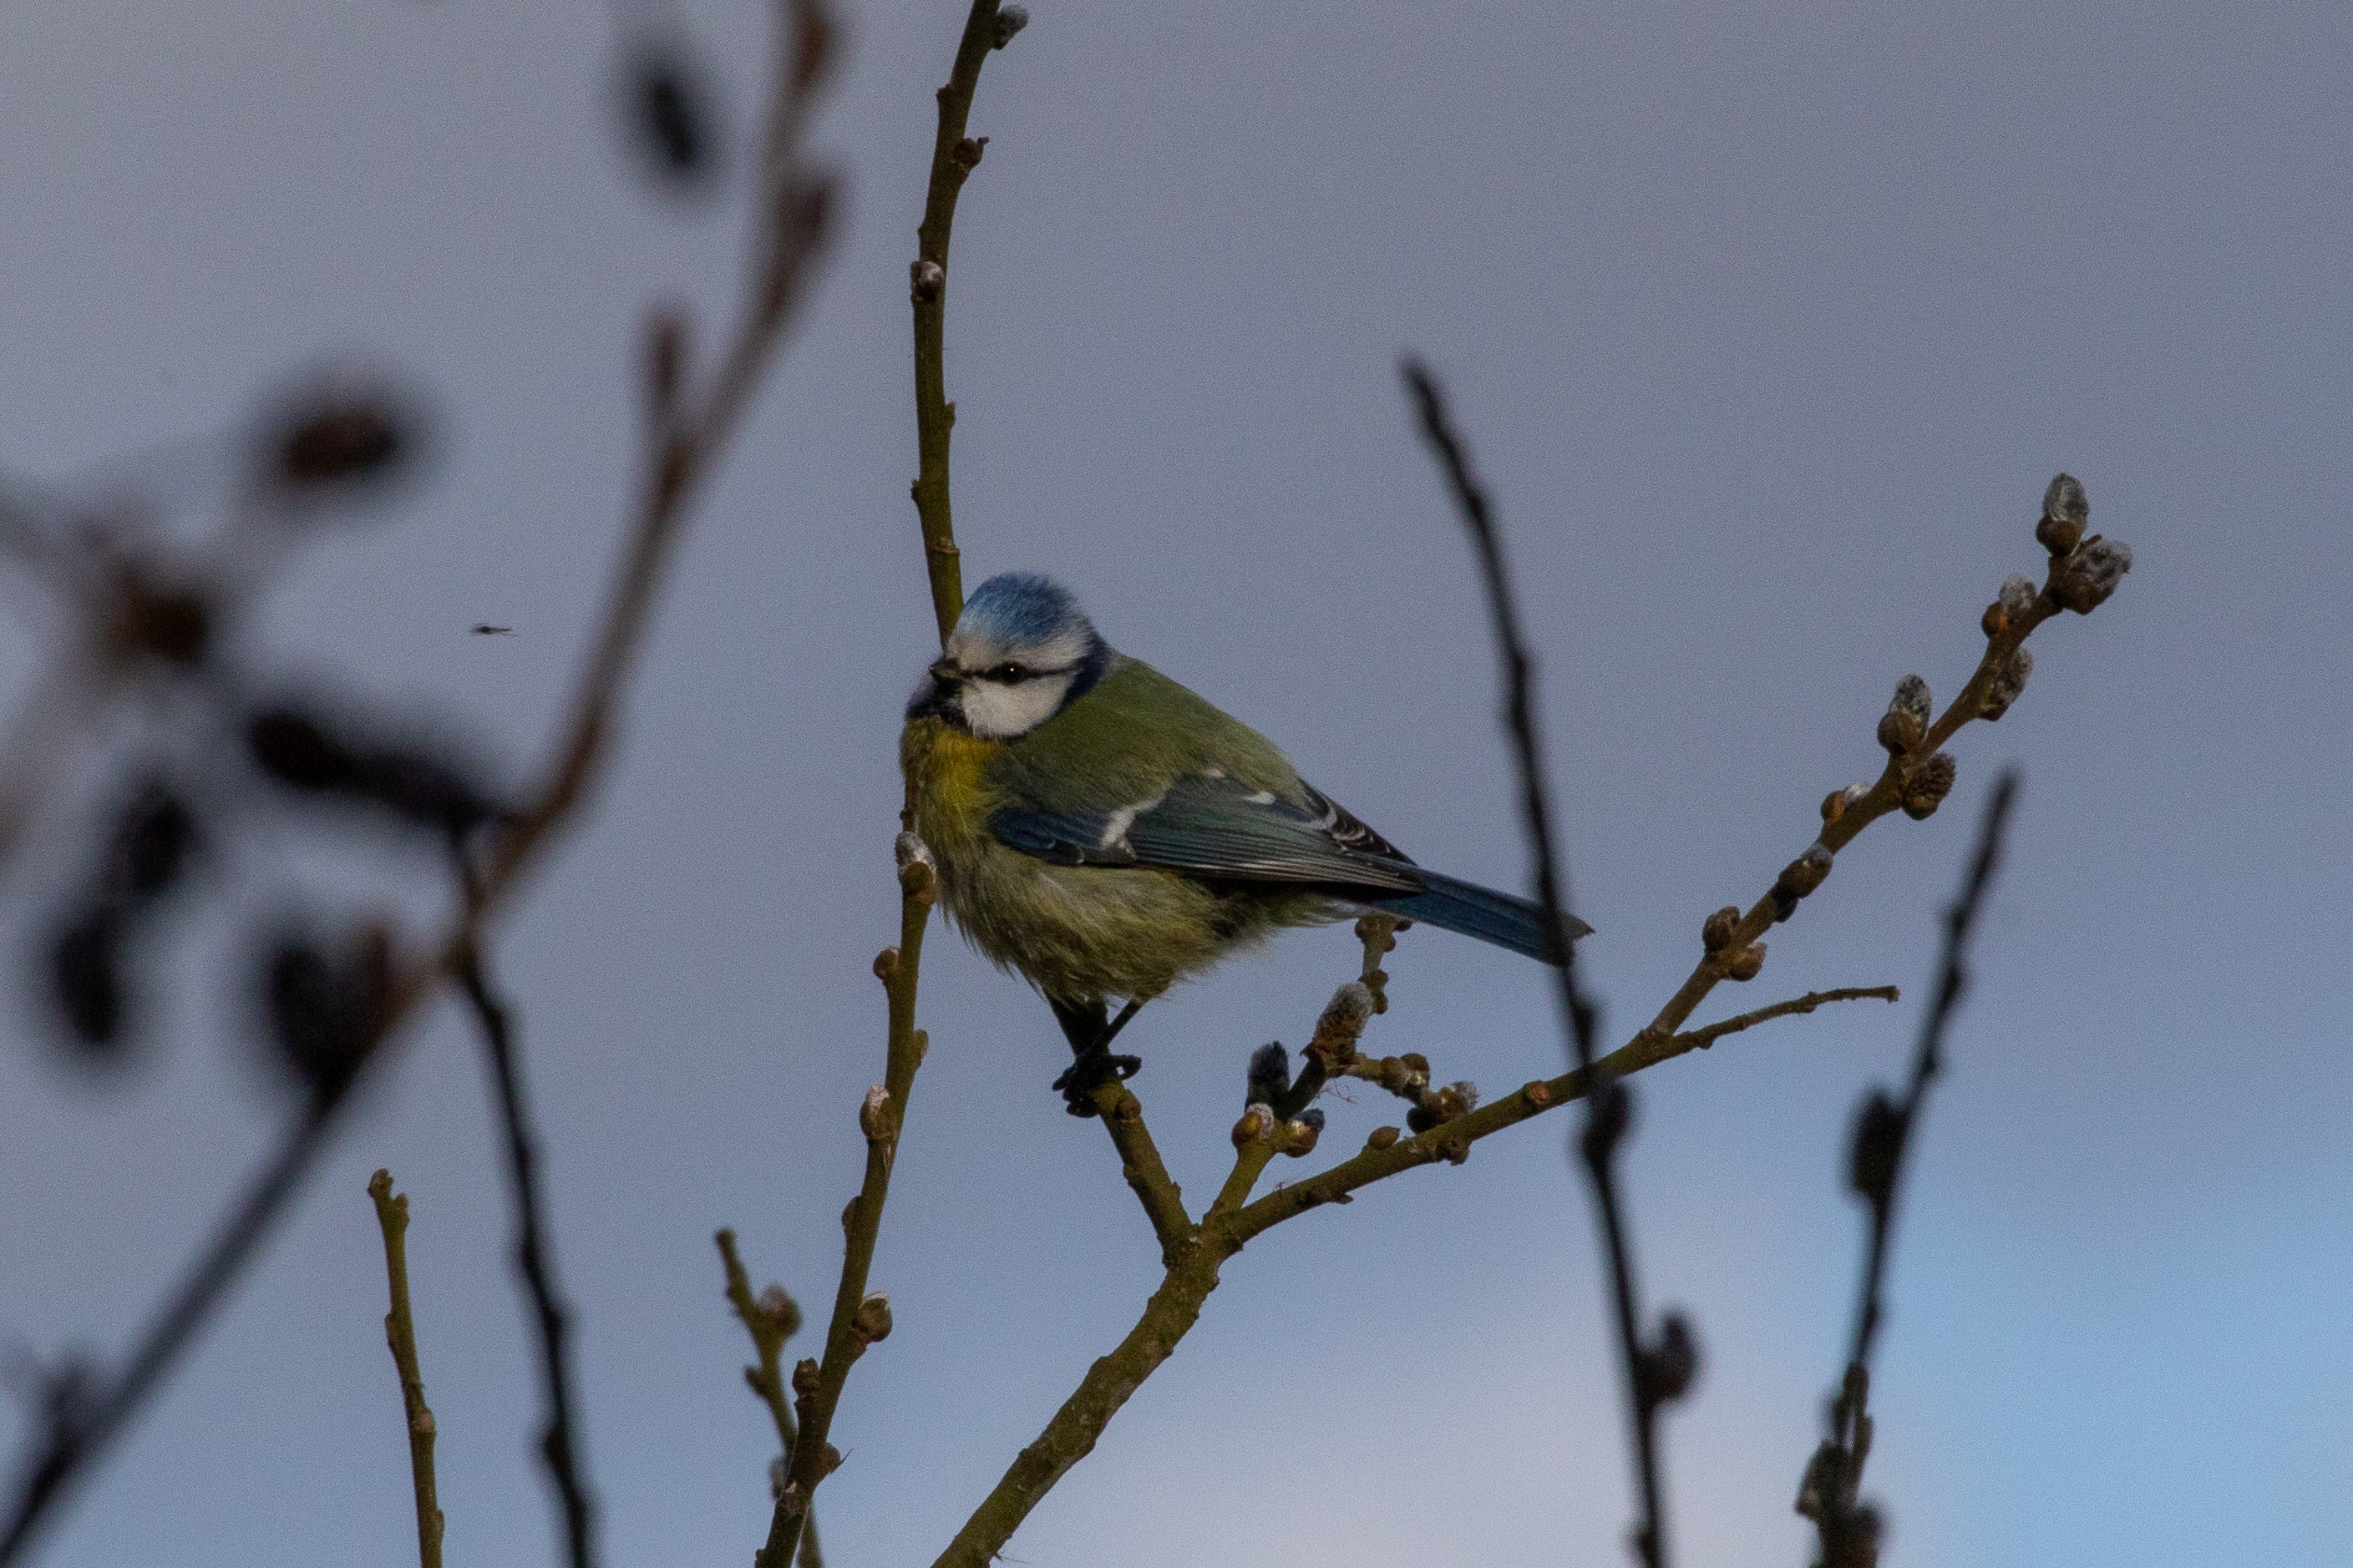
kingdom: Animalia
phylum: Chordata
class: Aves
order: Passeriformes
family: Paridae
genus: Cyanistes
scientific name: Cyanistes caeruleus
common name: Blåmejse
